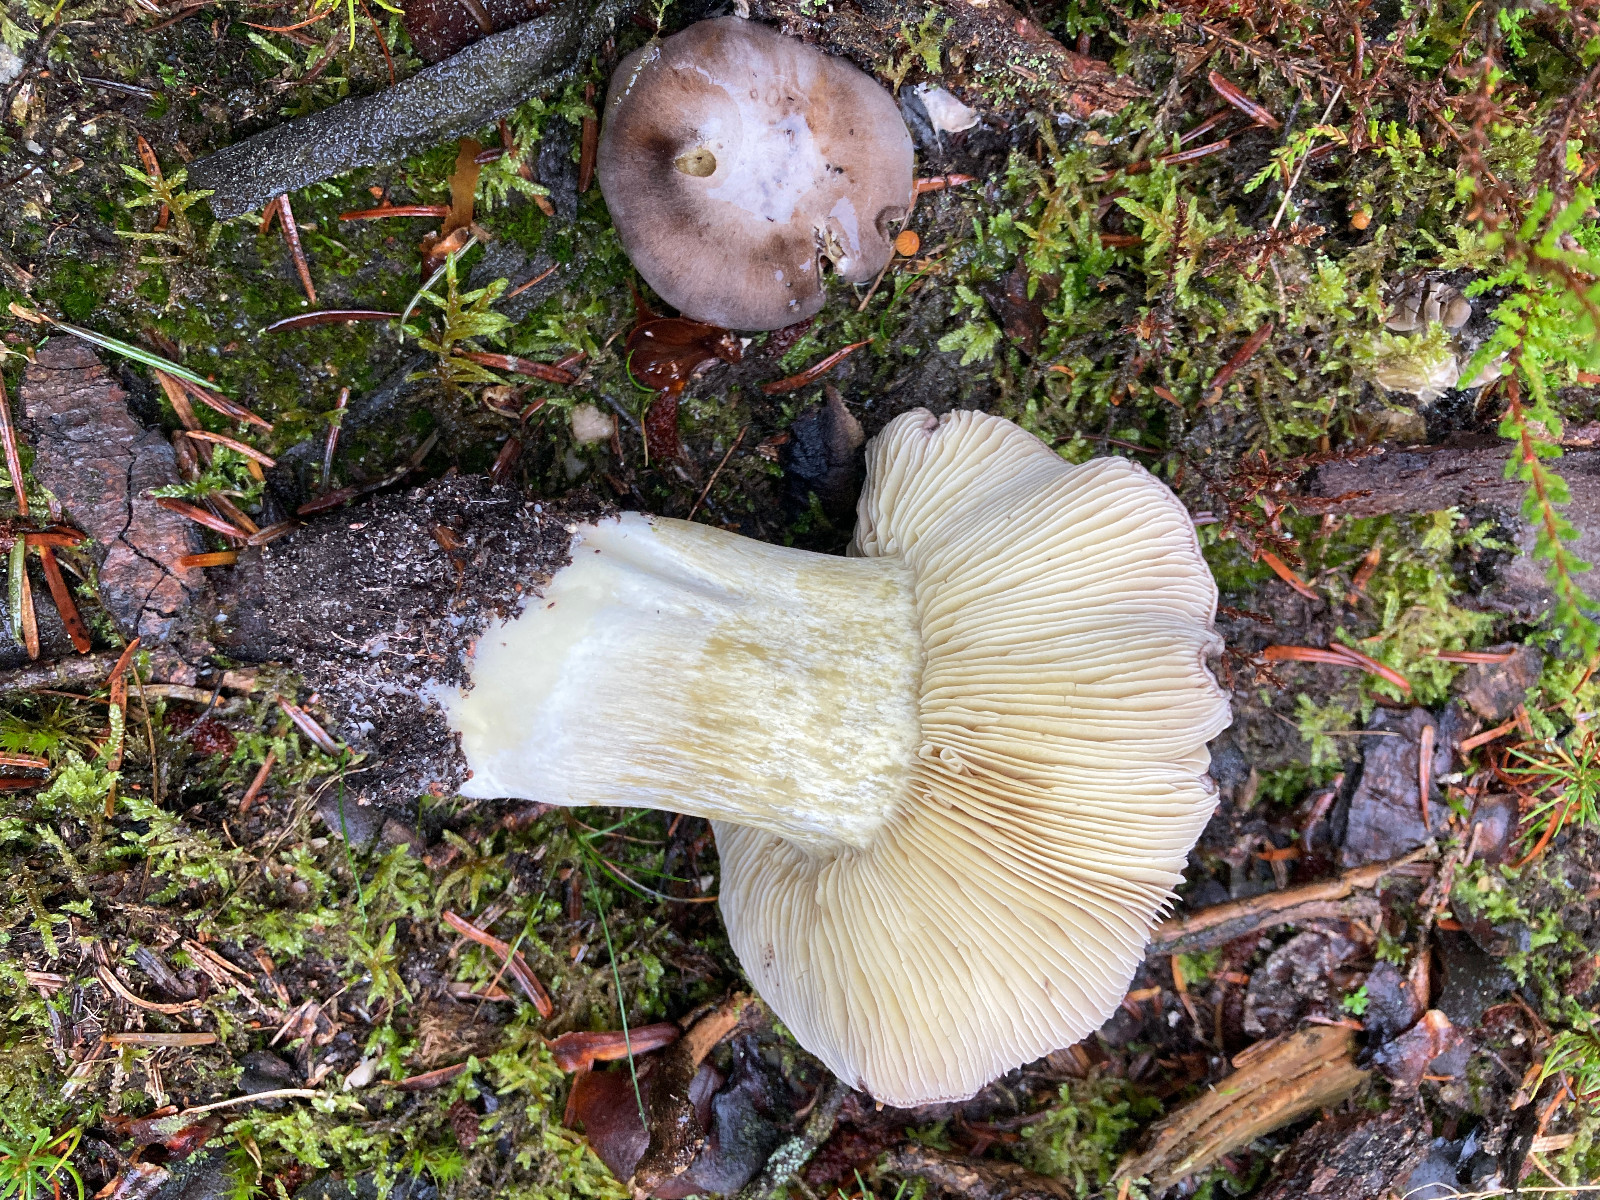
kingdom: Fungi
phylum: Basidiomycota
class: Agaricomycetes
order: Agaricales
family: Tricholomataceae
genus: Tricholoma
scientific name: Tricholoma portentosum
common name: grå ridderhat
